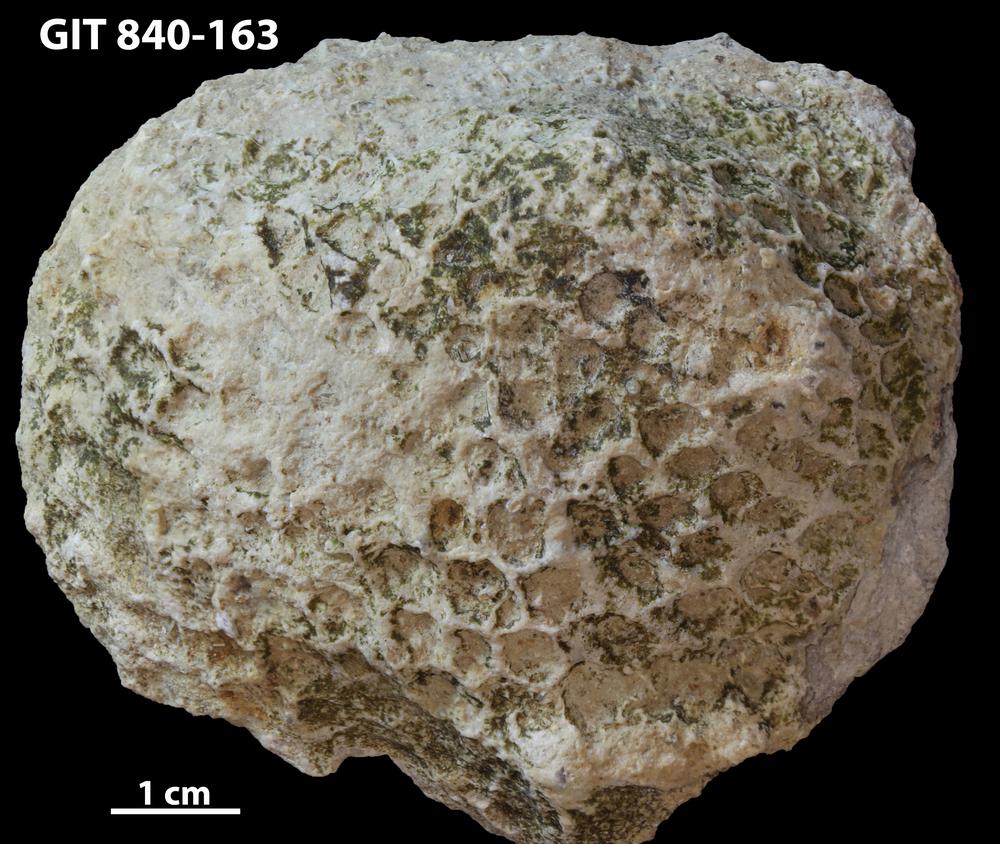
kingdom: Animalia
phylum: Porifera
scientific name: Porifera
